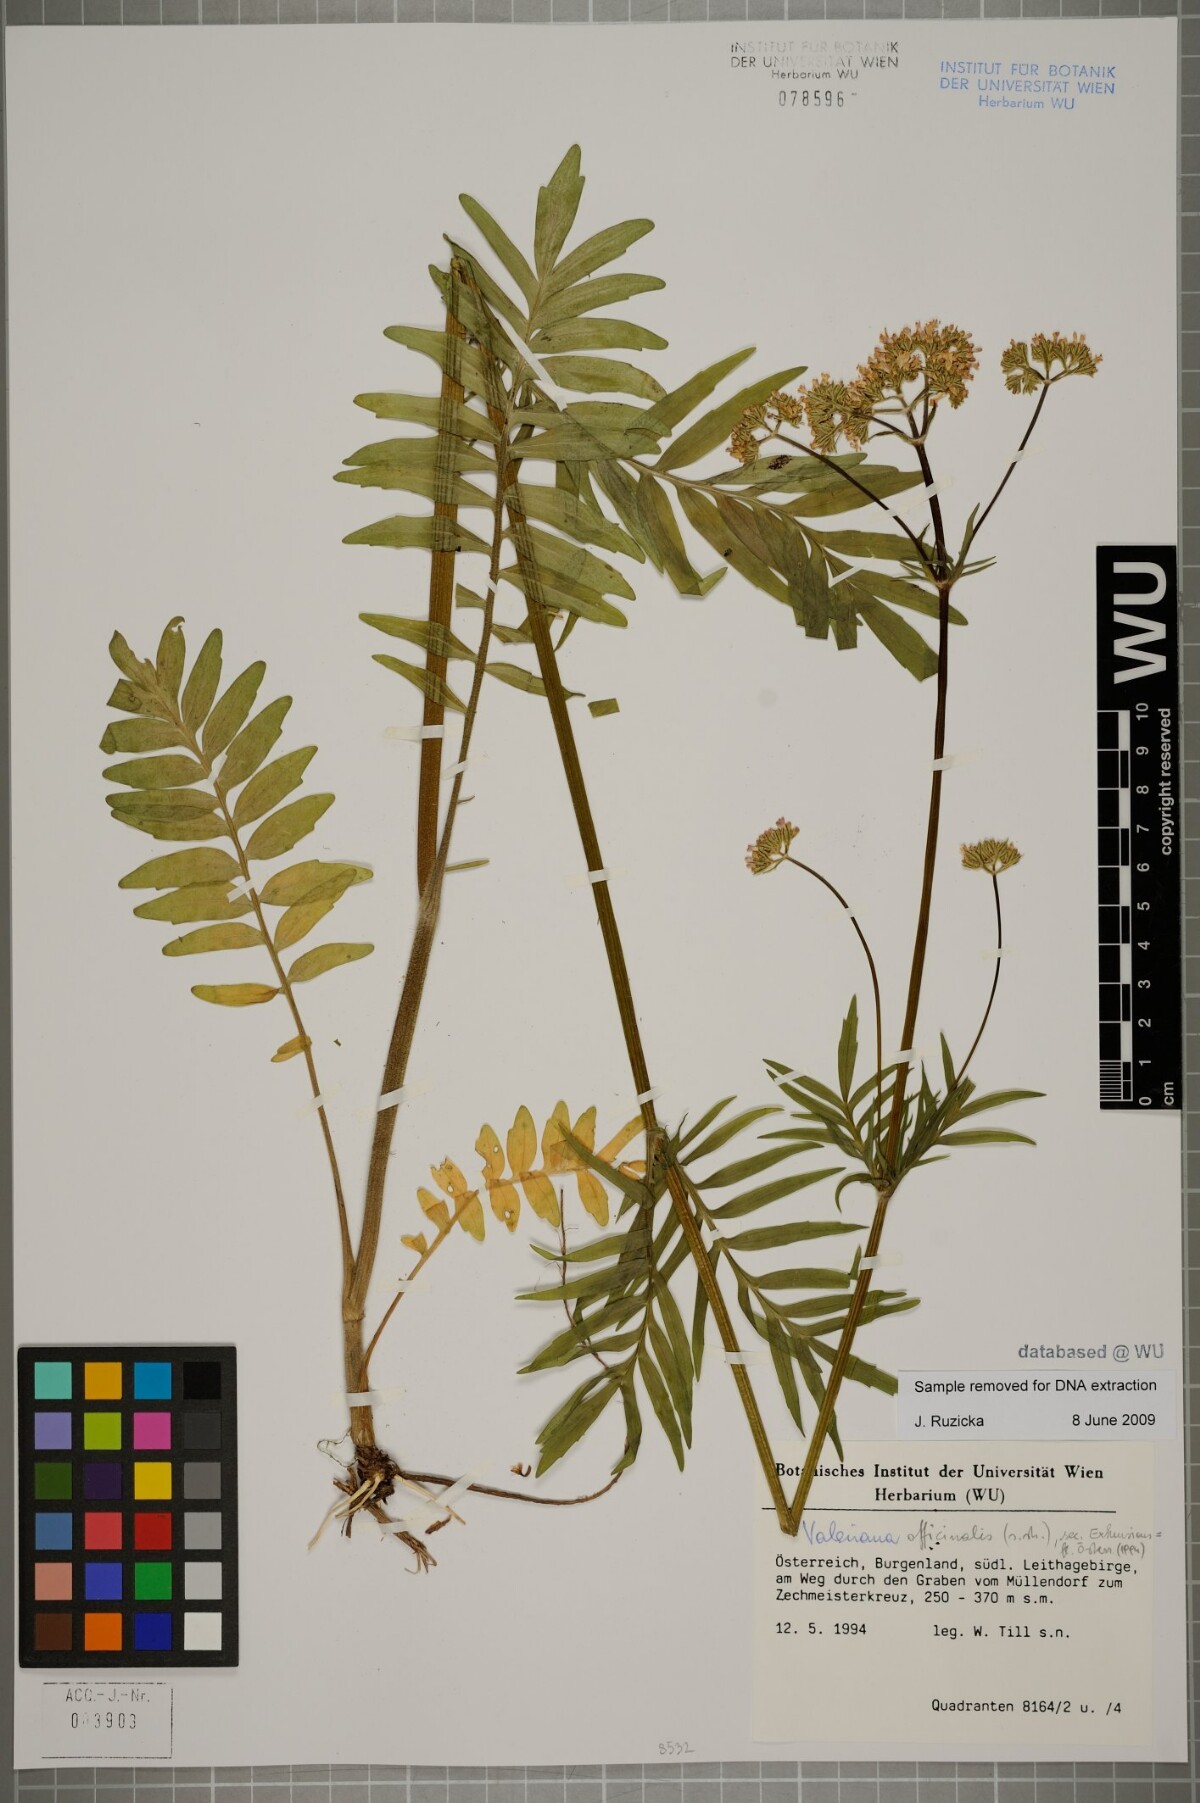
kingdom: Plantae
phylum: Tracheophyta
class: Magnoliopsida
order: Dipsacales
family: Caprifoliaceae
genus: Valeriana
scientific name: Valeriana officinalis
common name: Common valerian
